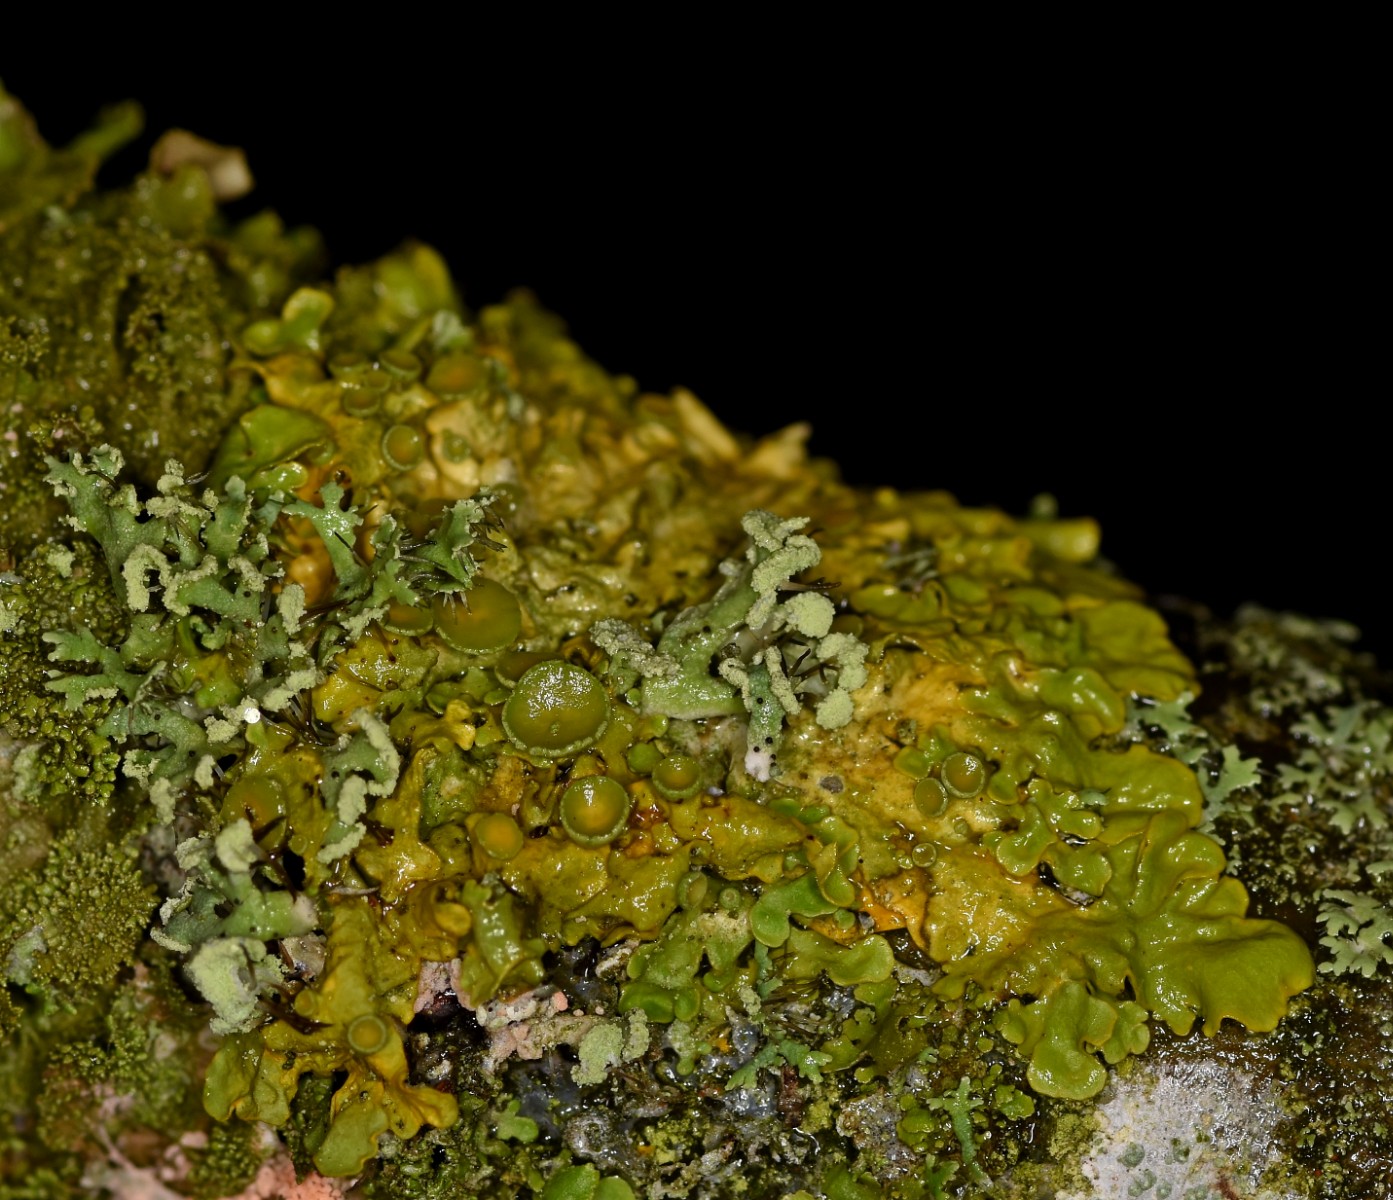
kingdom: Fungi
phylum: Ascomycota
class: Lecanoromycetes
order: Teloschistales
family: Teloschistaceae
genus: Xanthoria
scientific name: Xanthoria parietina
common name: almindelig væggelav
